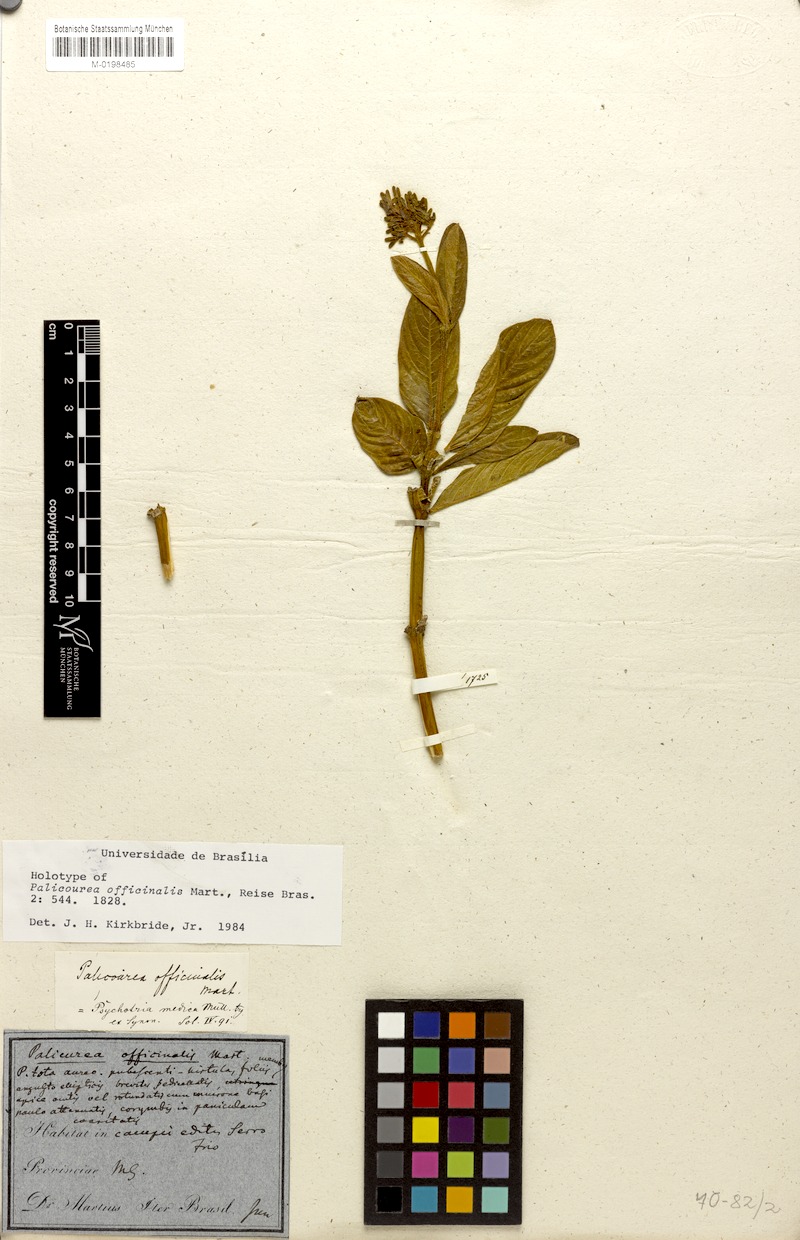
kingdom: Plantae
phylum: Tracheophyta
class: Magnoliopsida
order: Gentianales
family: Rubiaceae
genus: Palicourea
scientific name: Palicourea officinalis
